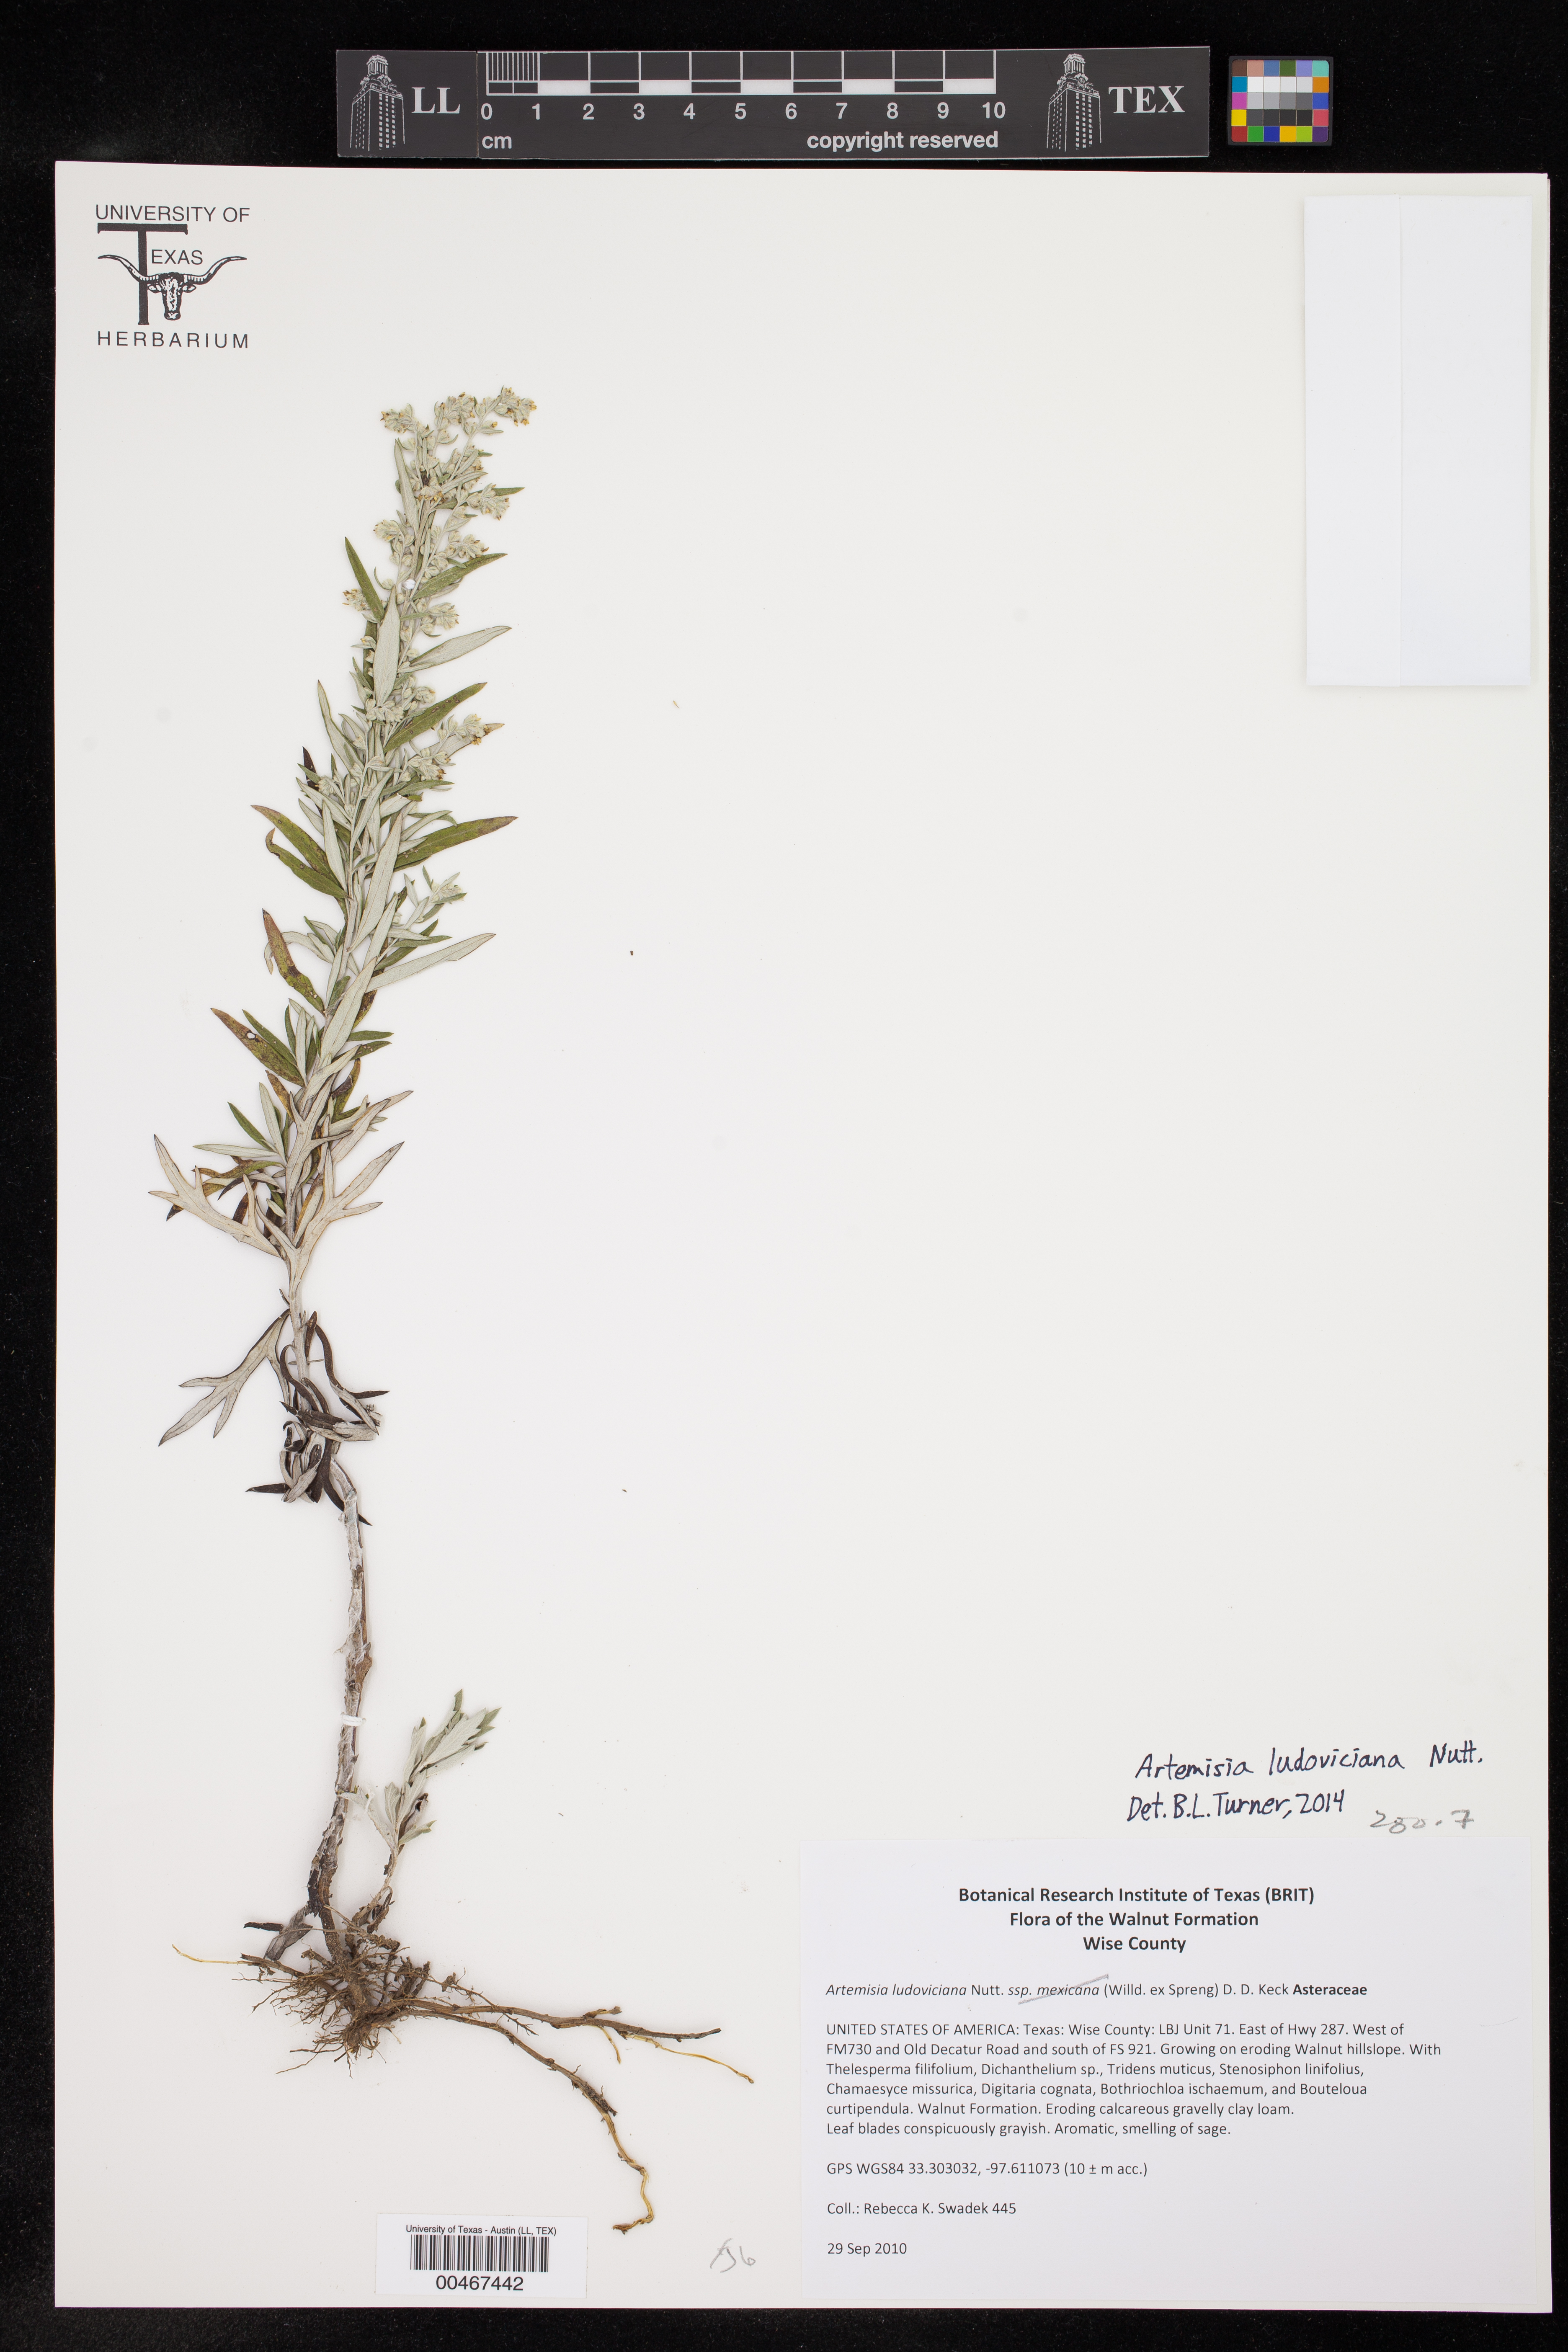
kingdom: Plantae
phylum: Tracheophyta
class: Magnoliopsida
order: Asterales
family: Asteraceae
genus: Artemisia
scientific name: Artemisia ludoviciana
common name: Western mugwort
